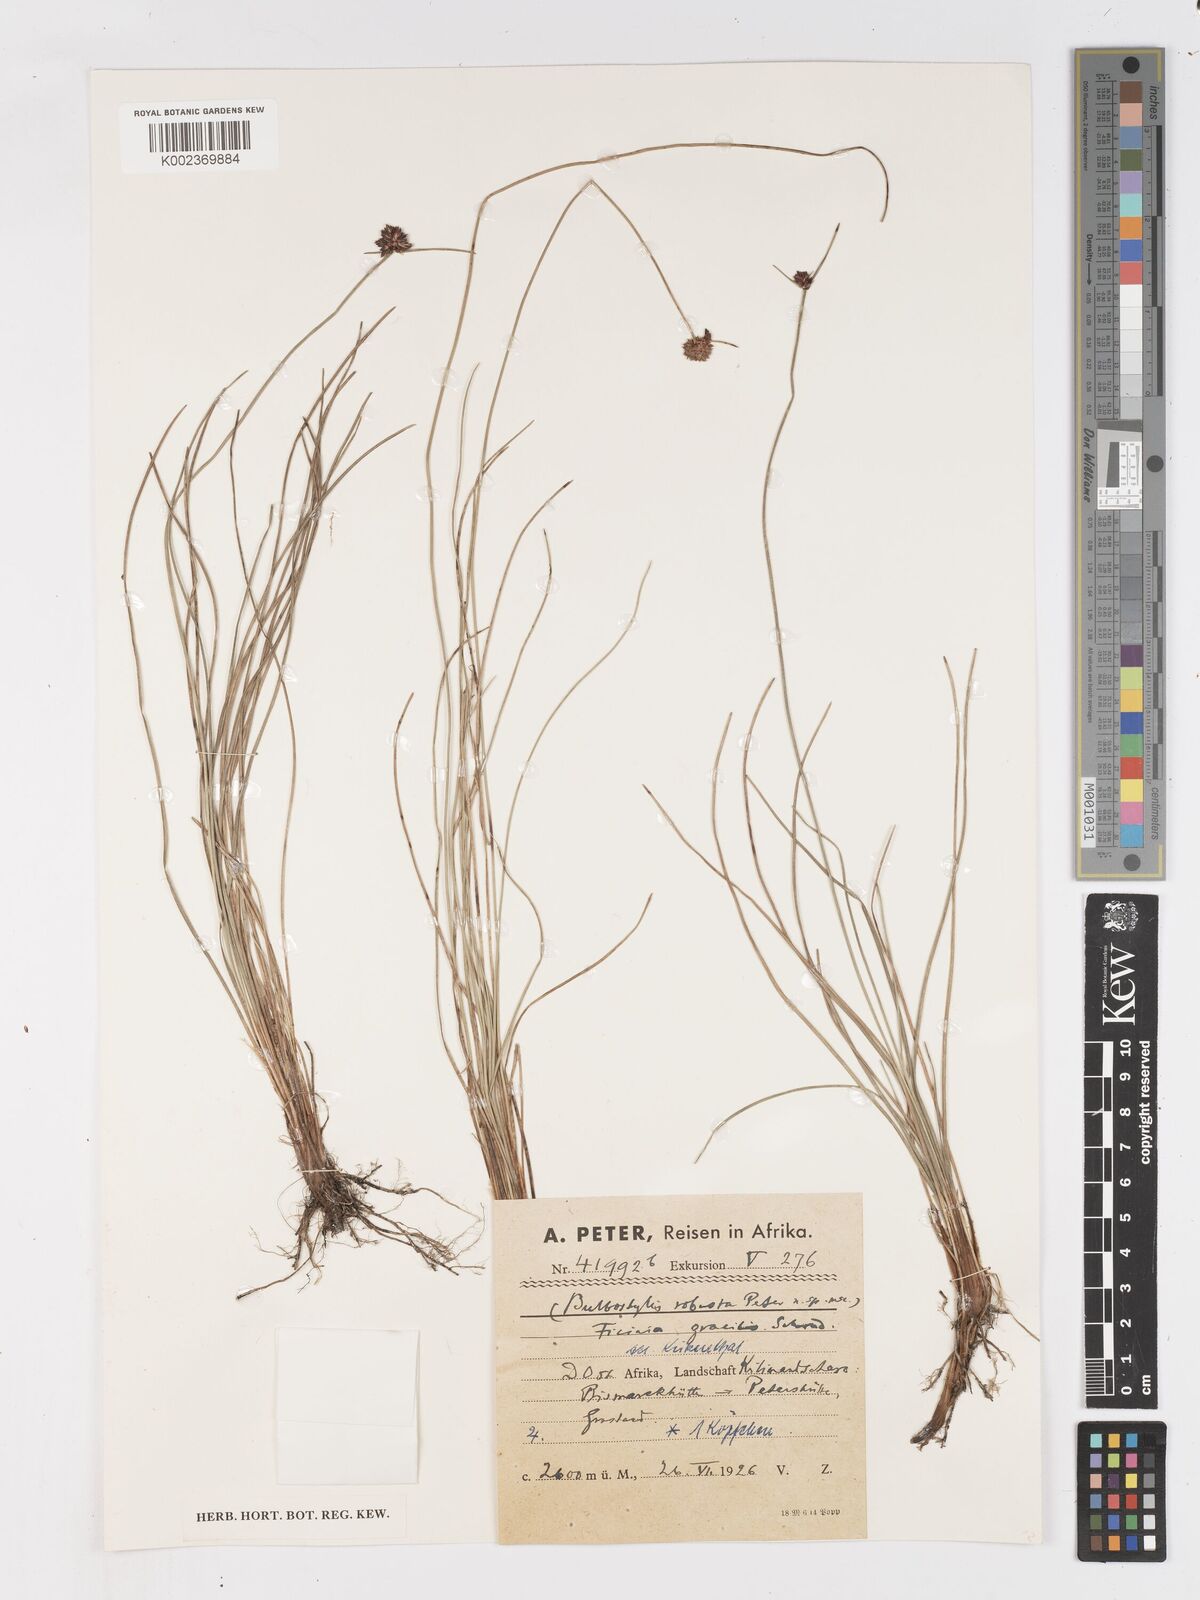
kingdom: Plantae
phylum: Tracheophyta
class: Liliopsida
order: Poales
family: Cyperaceae
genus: Ficinia
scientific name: Ficinia gracilis
